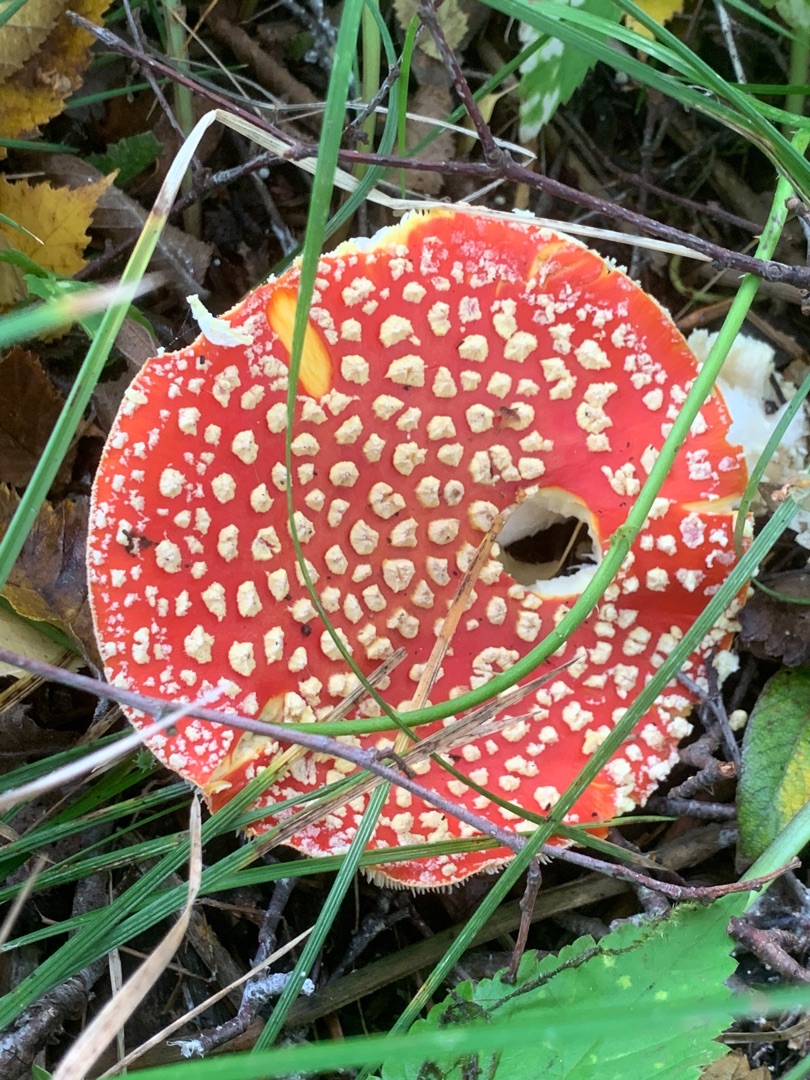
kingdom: Fungi
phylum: Basidiomycota
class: Agaricomycetes
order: Agaricales
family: Amanitaceae
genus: Amanita
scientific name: Amanita muscaria
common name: Rød fluesvamp
